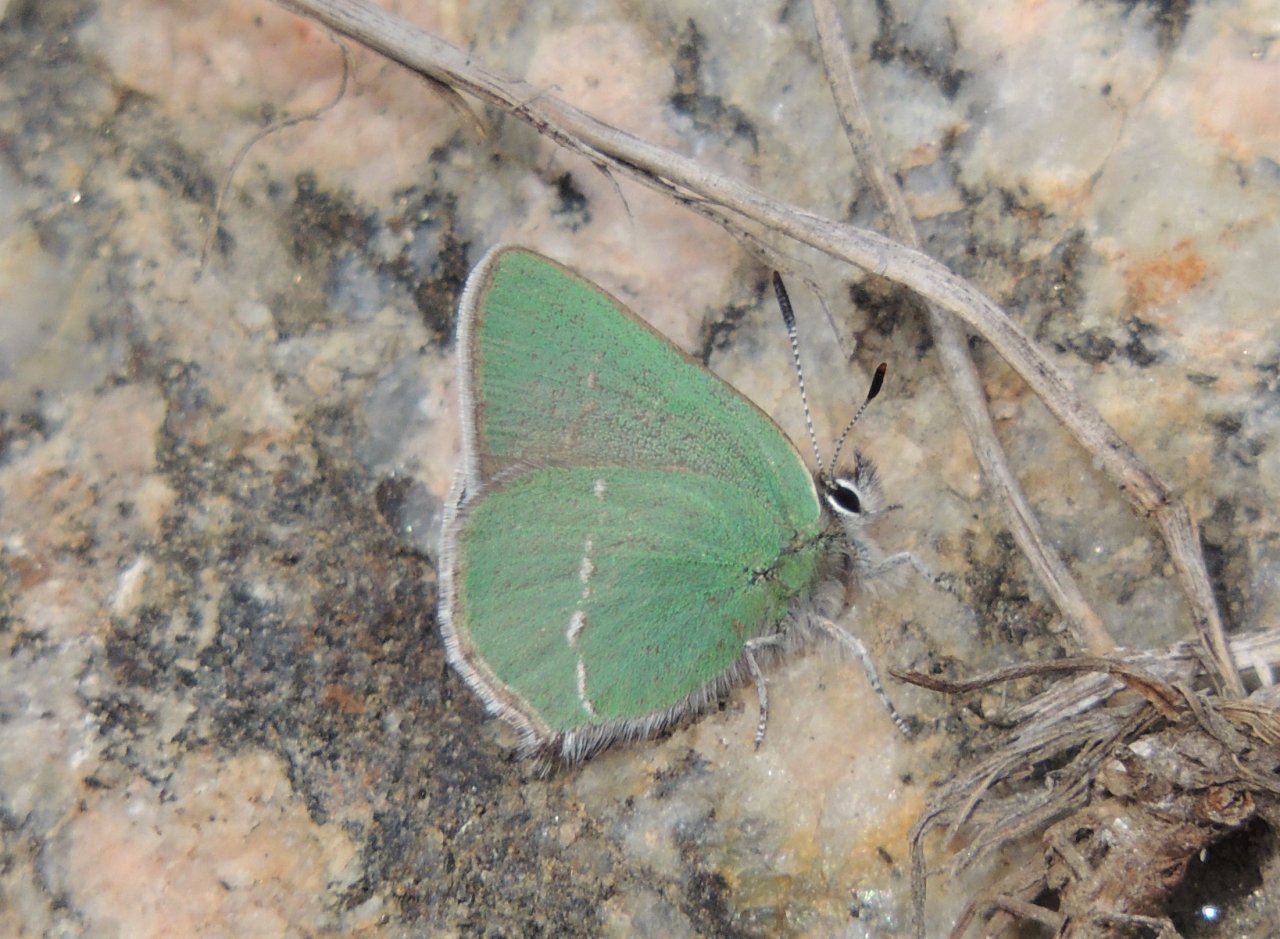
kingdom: Animalia
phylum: Arthropoda
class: Insecta
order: Lepidoptera
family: Lycaenidae
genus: Thecla
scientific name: Thecla sheridanii
